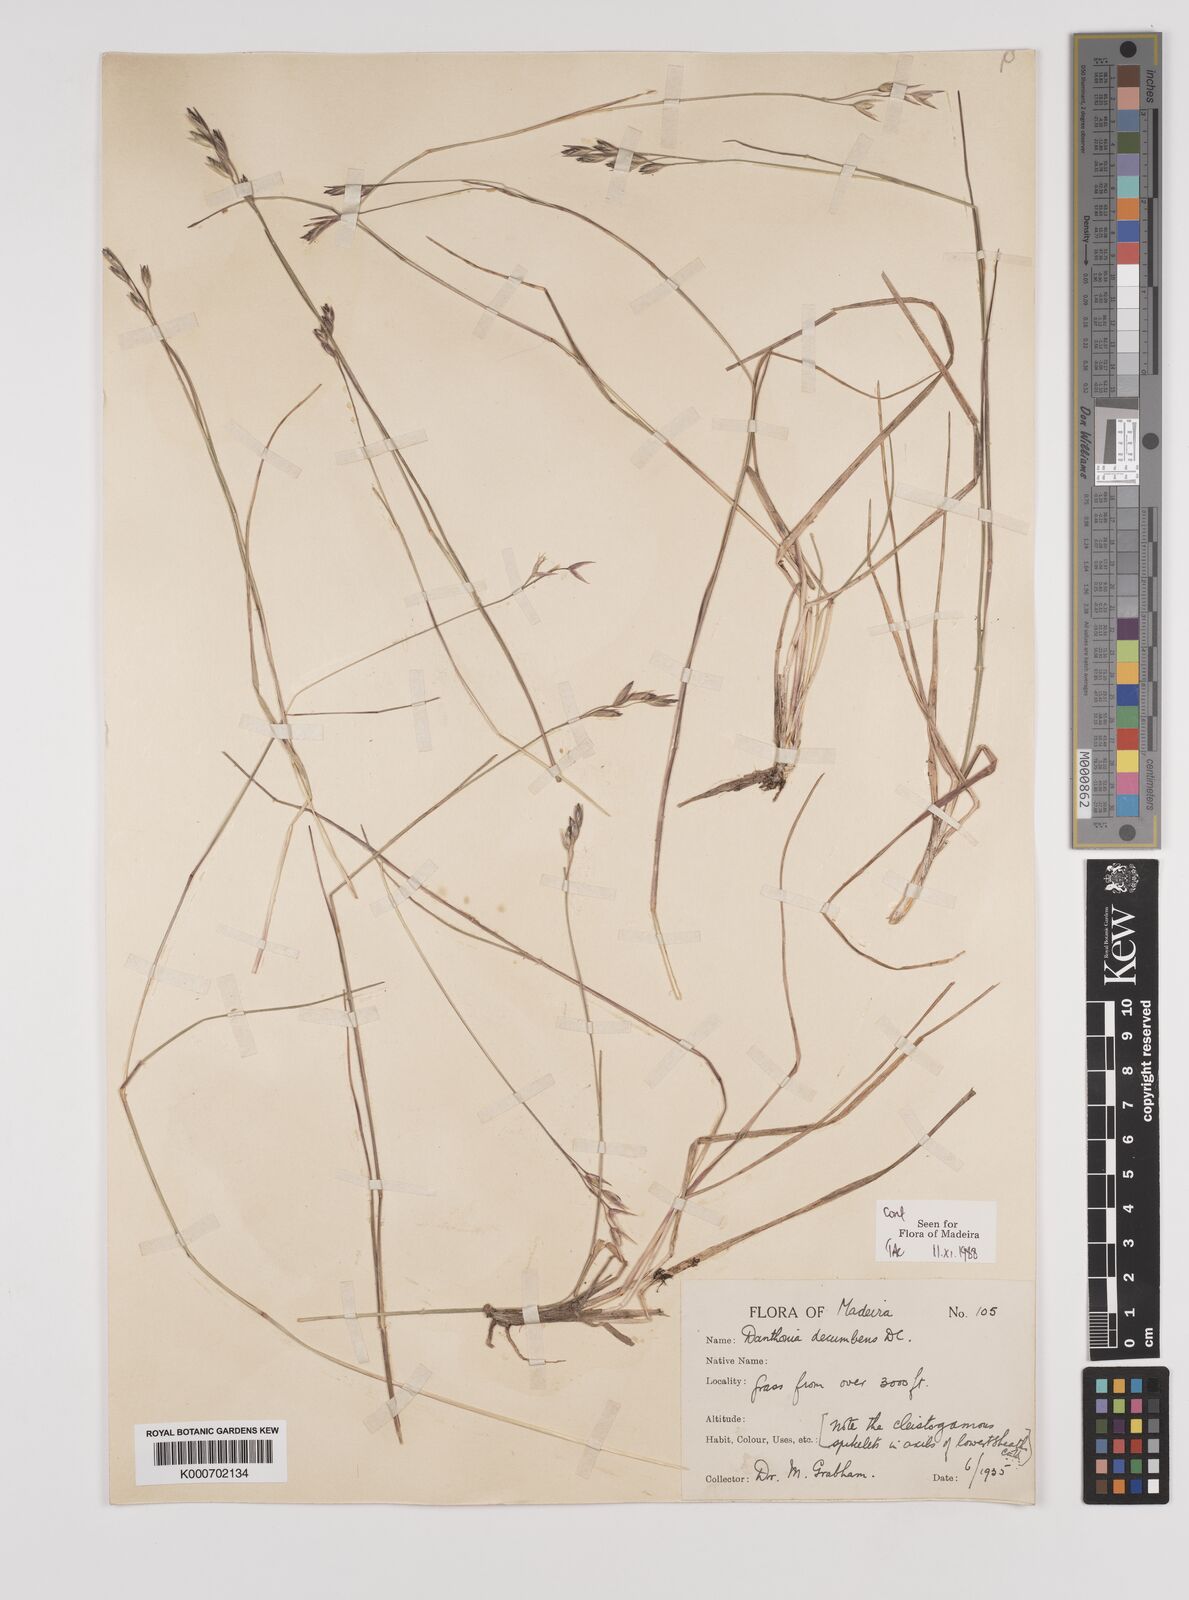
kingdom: Plantae
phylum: Tracheophyta
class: Liliopsida
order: Poales
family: Poaceae
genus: Danthonia
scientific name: Danthonia decumbens
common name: Common heathgrass
